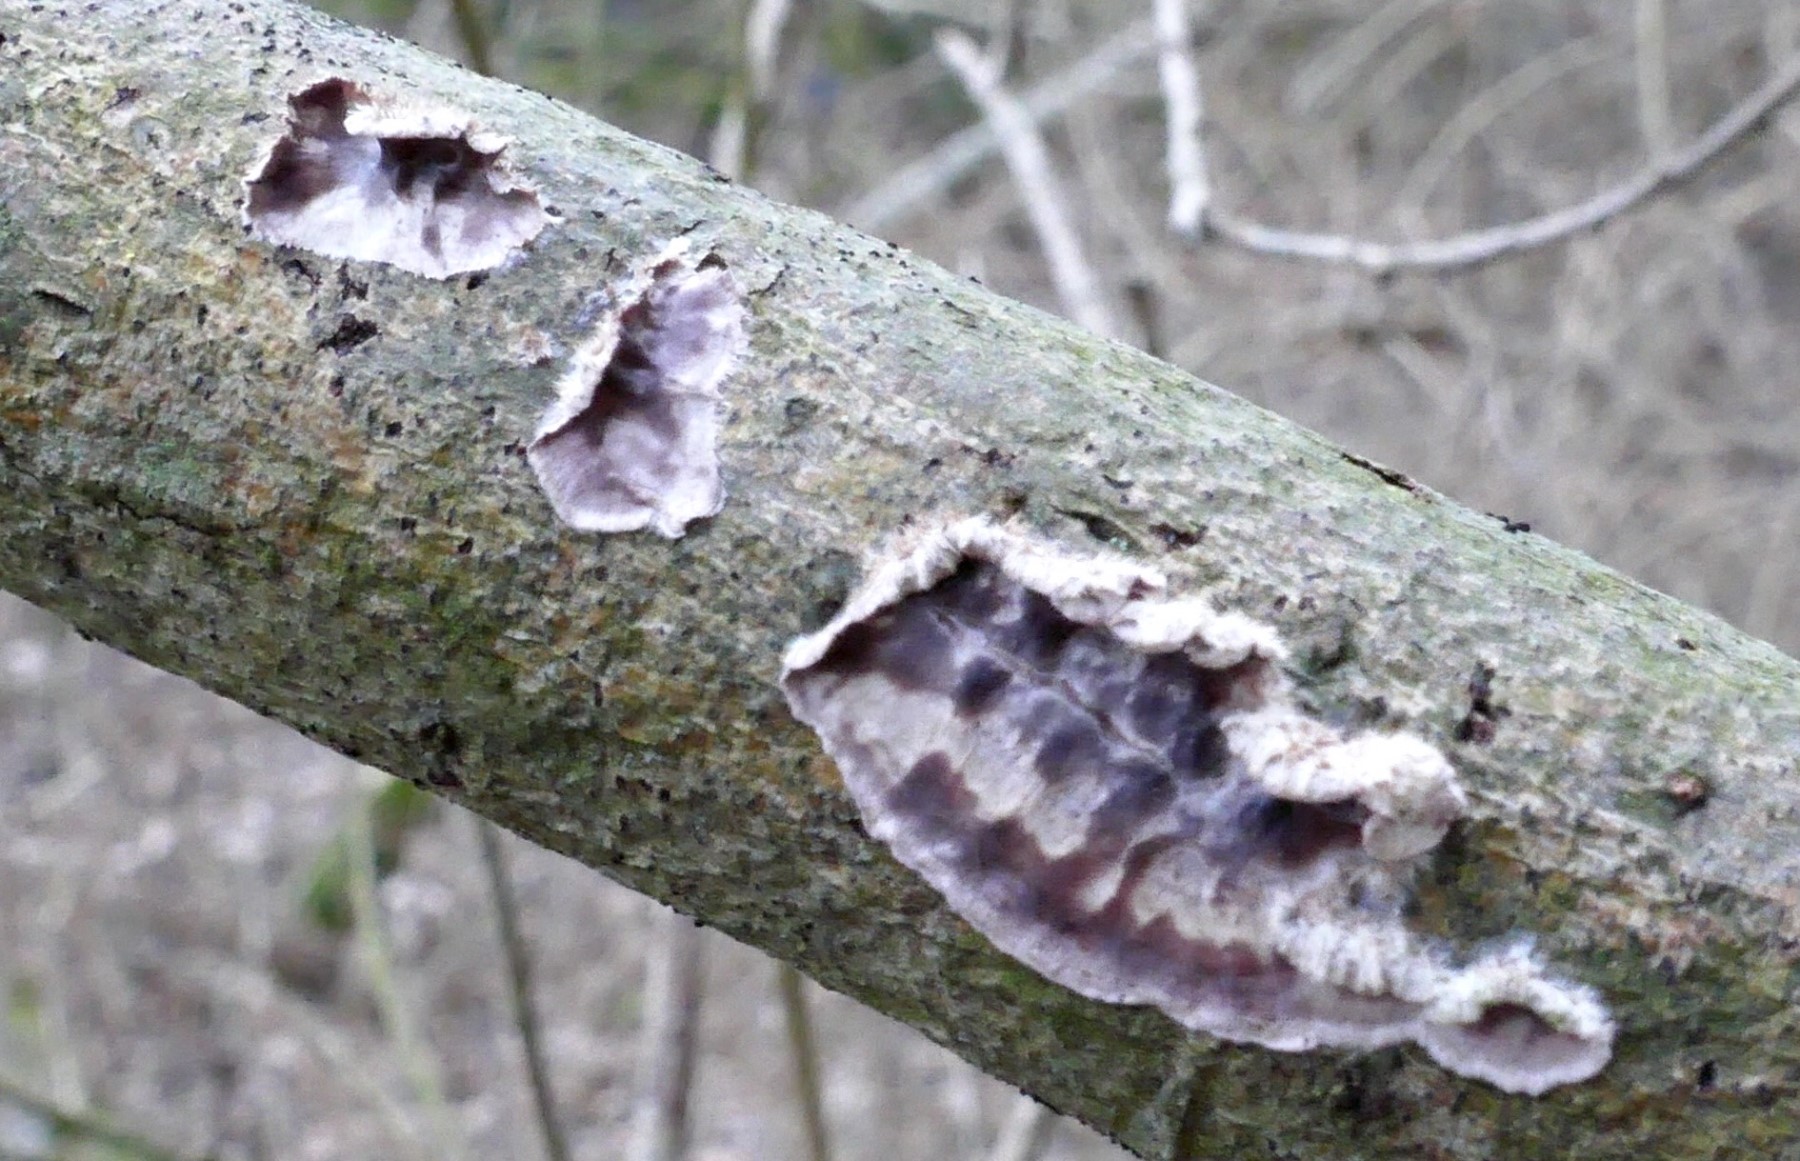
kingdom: Fungi
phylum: Basidiomycota
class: Agaricomycetes
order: Agaricales
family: Cyphellaceae
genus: Chondrostereum
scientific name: Chondrostereum purpureum
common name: purpurlædersvamp
